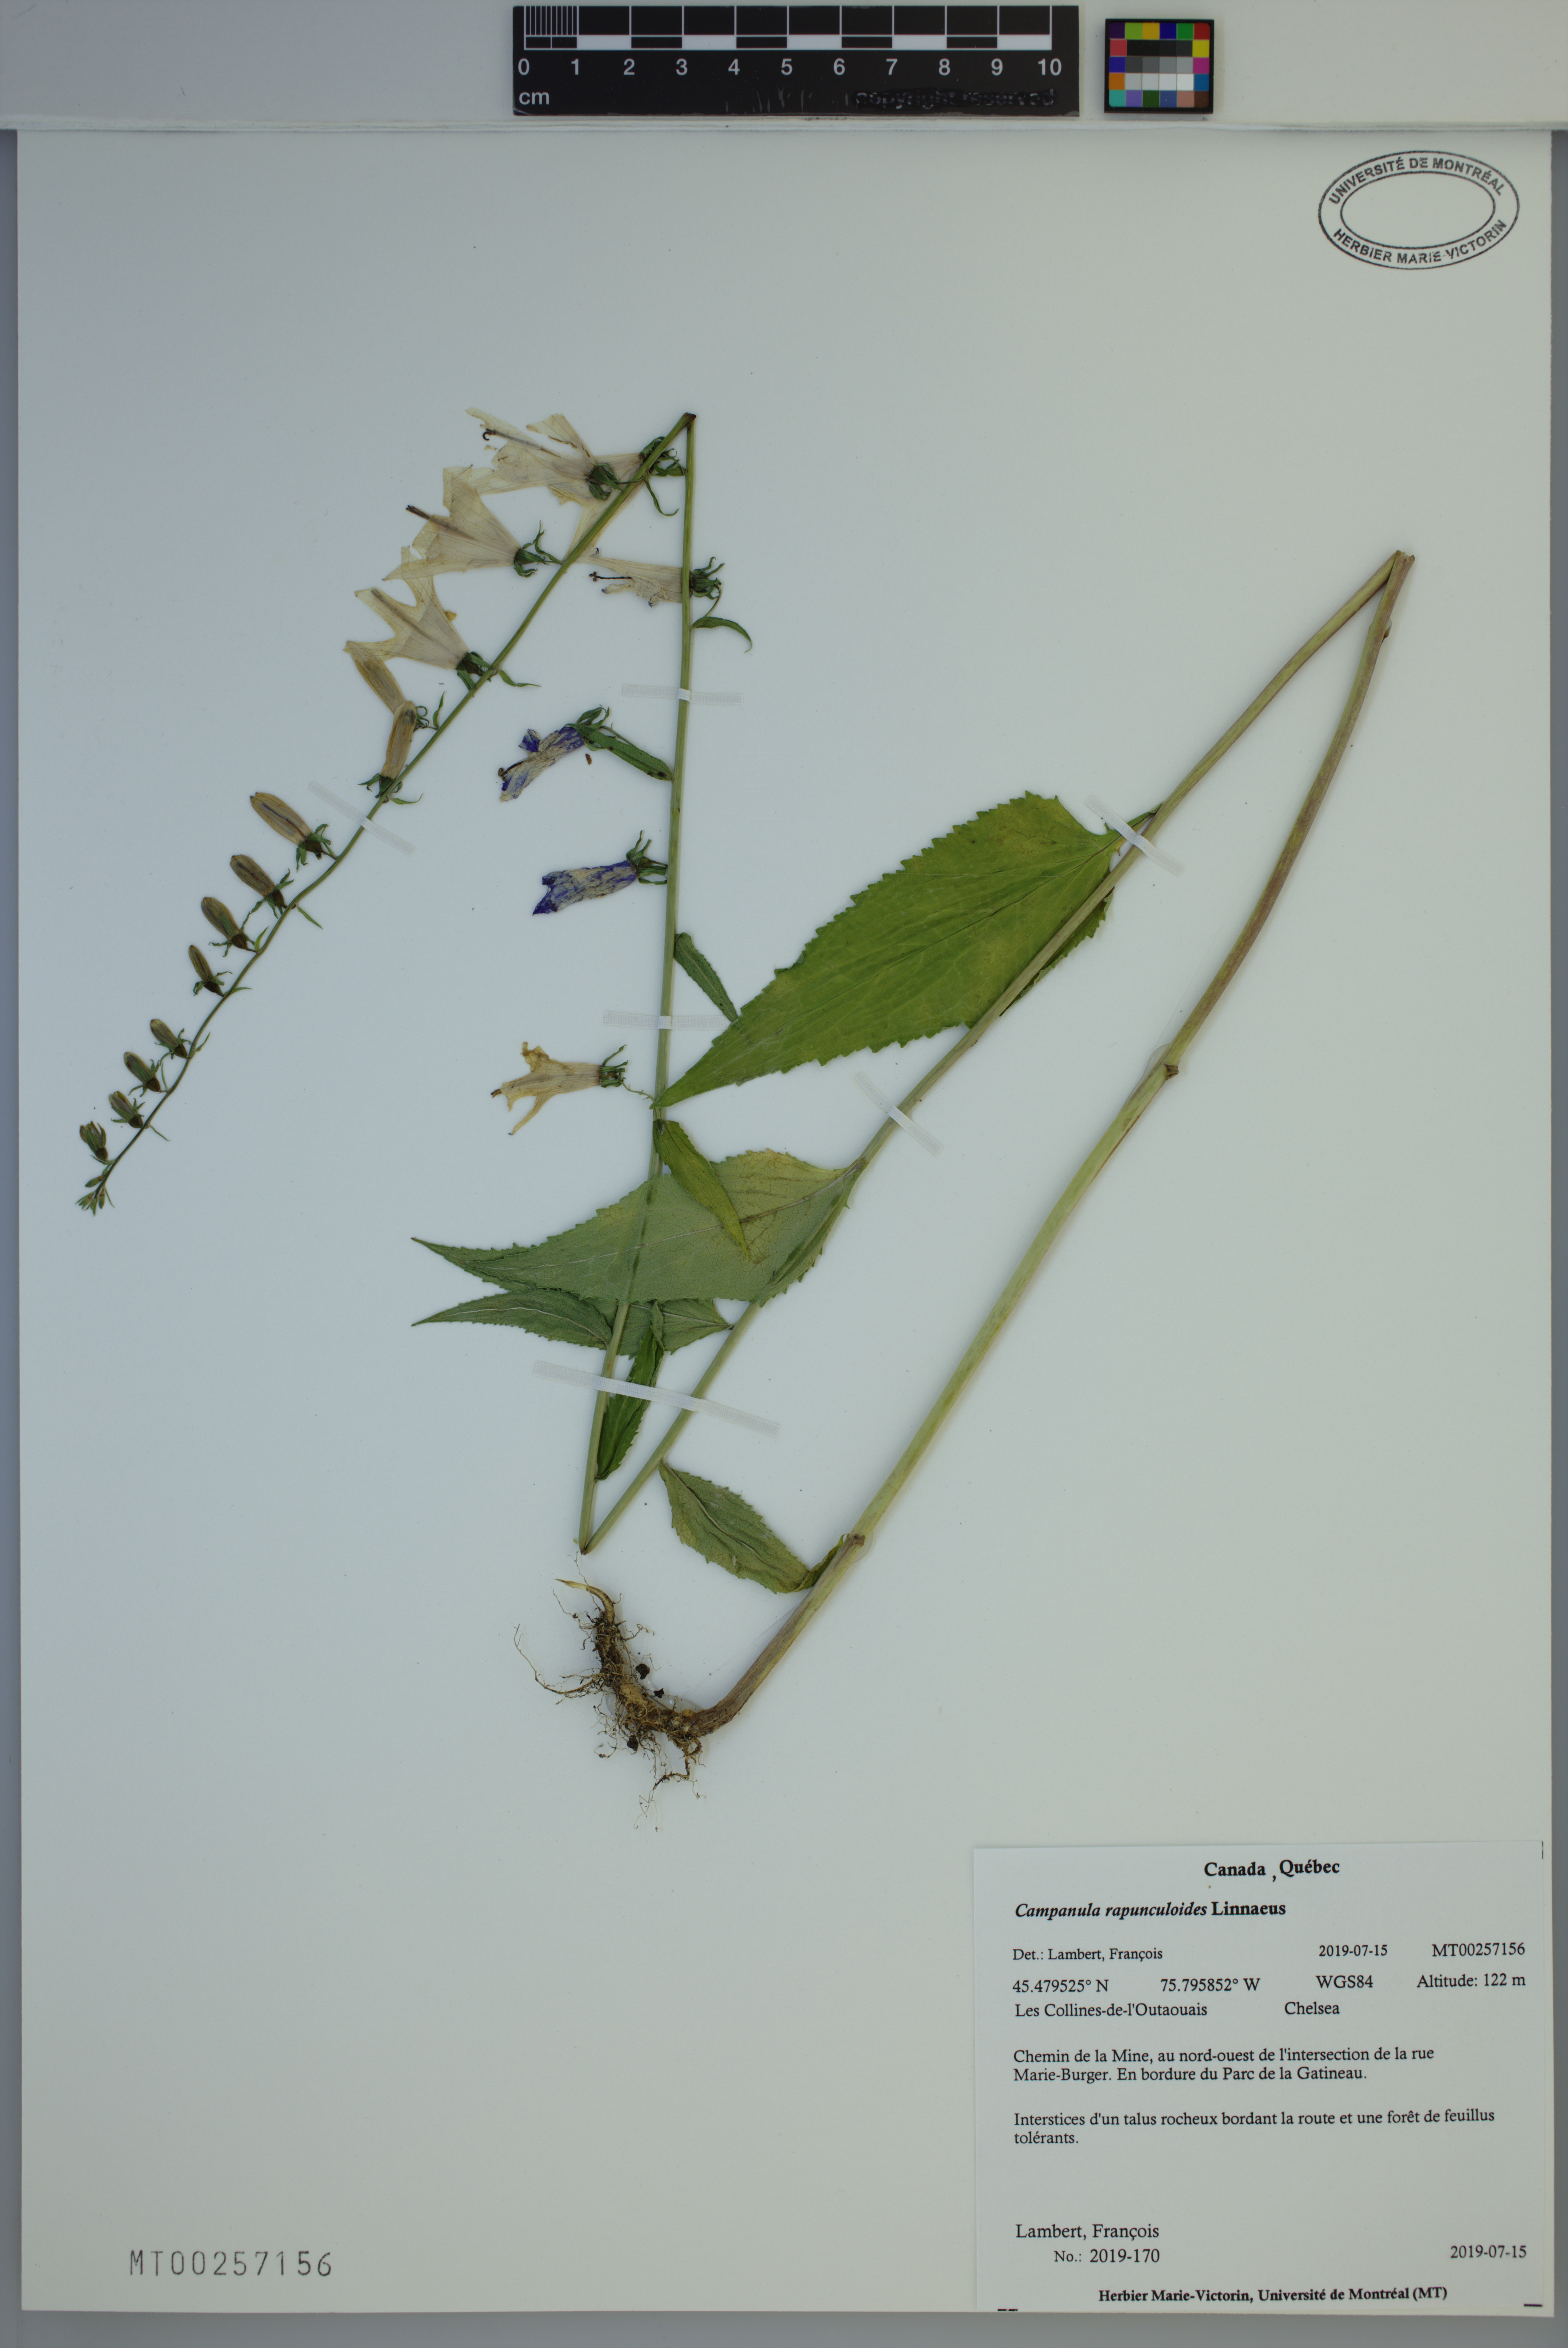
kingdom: Plantae
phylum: Tracheophyta
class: Magnoliopsida
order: Asterales
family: Campanulaceae
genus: Campanula
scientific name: Campanula rapunculoides
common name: Creeping bellflower
